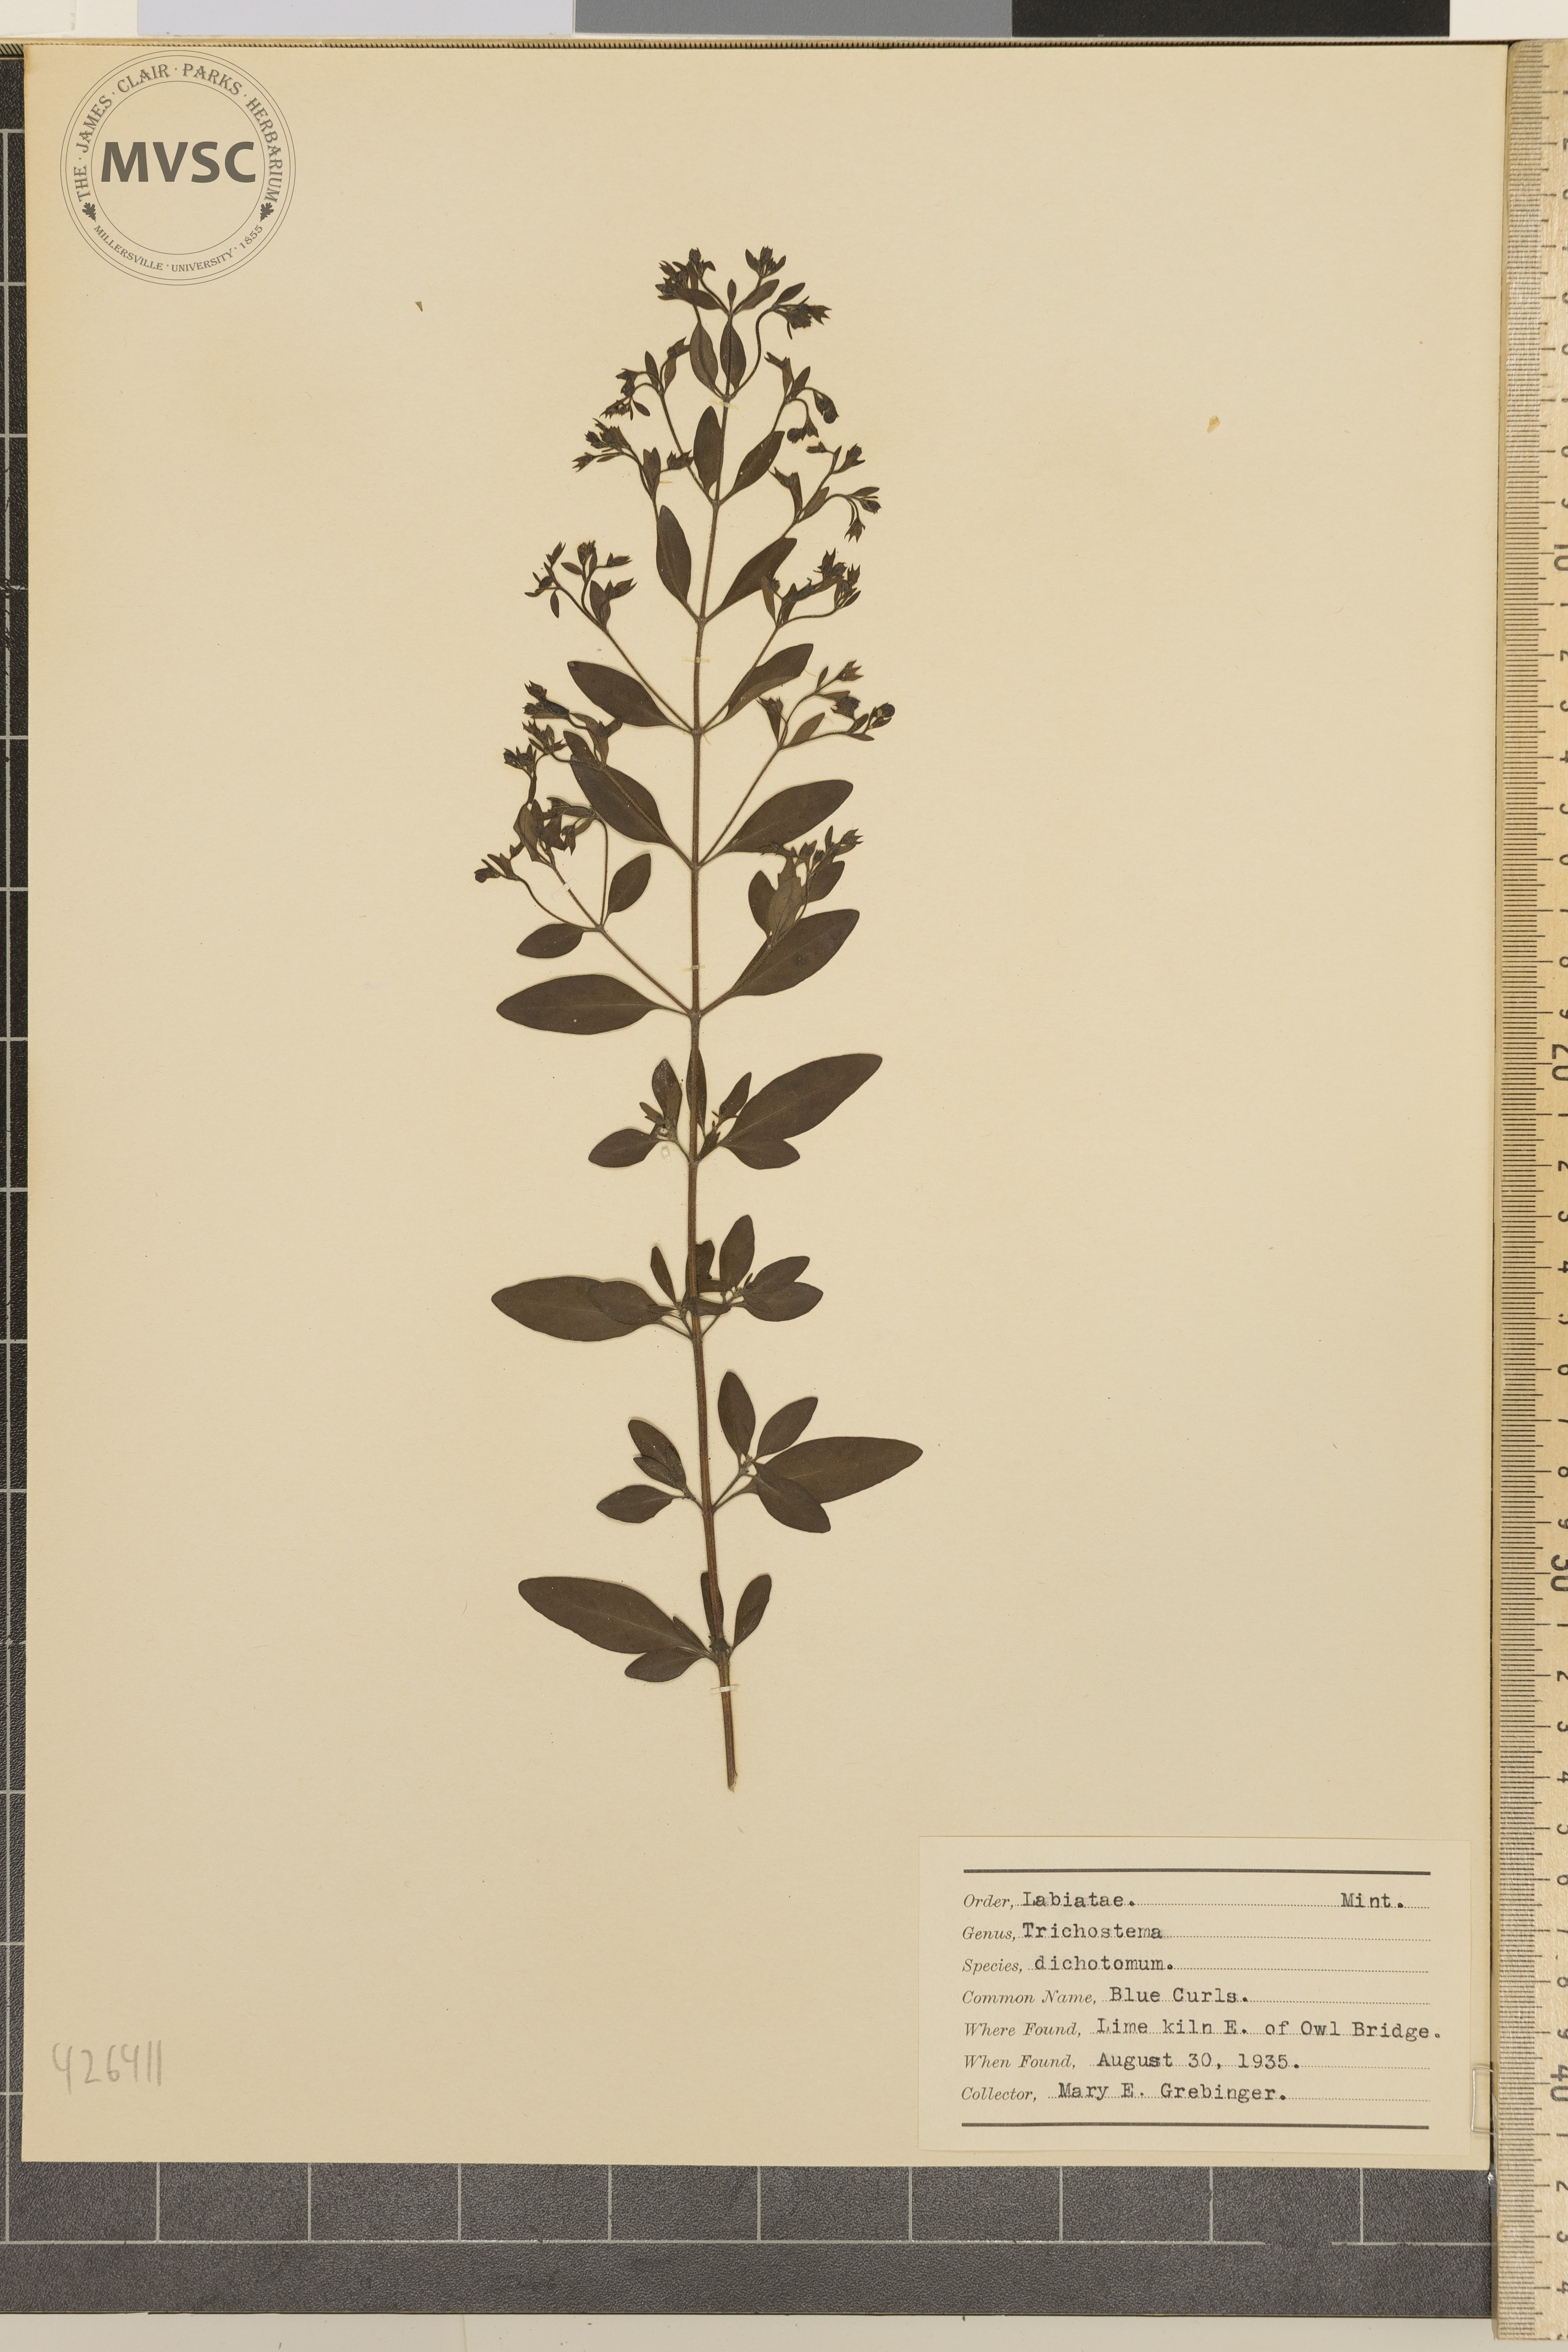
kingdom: Plantae
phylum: Tracheophyta
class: Magnoliopsida
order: Lamiales
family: Lamiaceae
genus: Trichostema
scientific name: Trichostema dichotomum
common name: Blue curls
